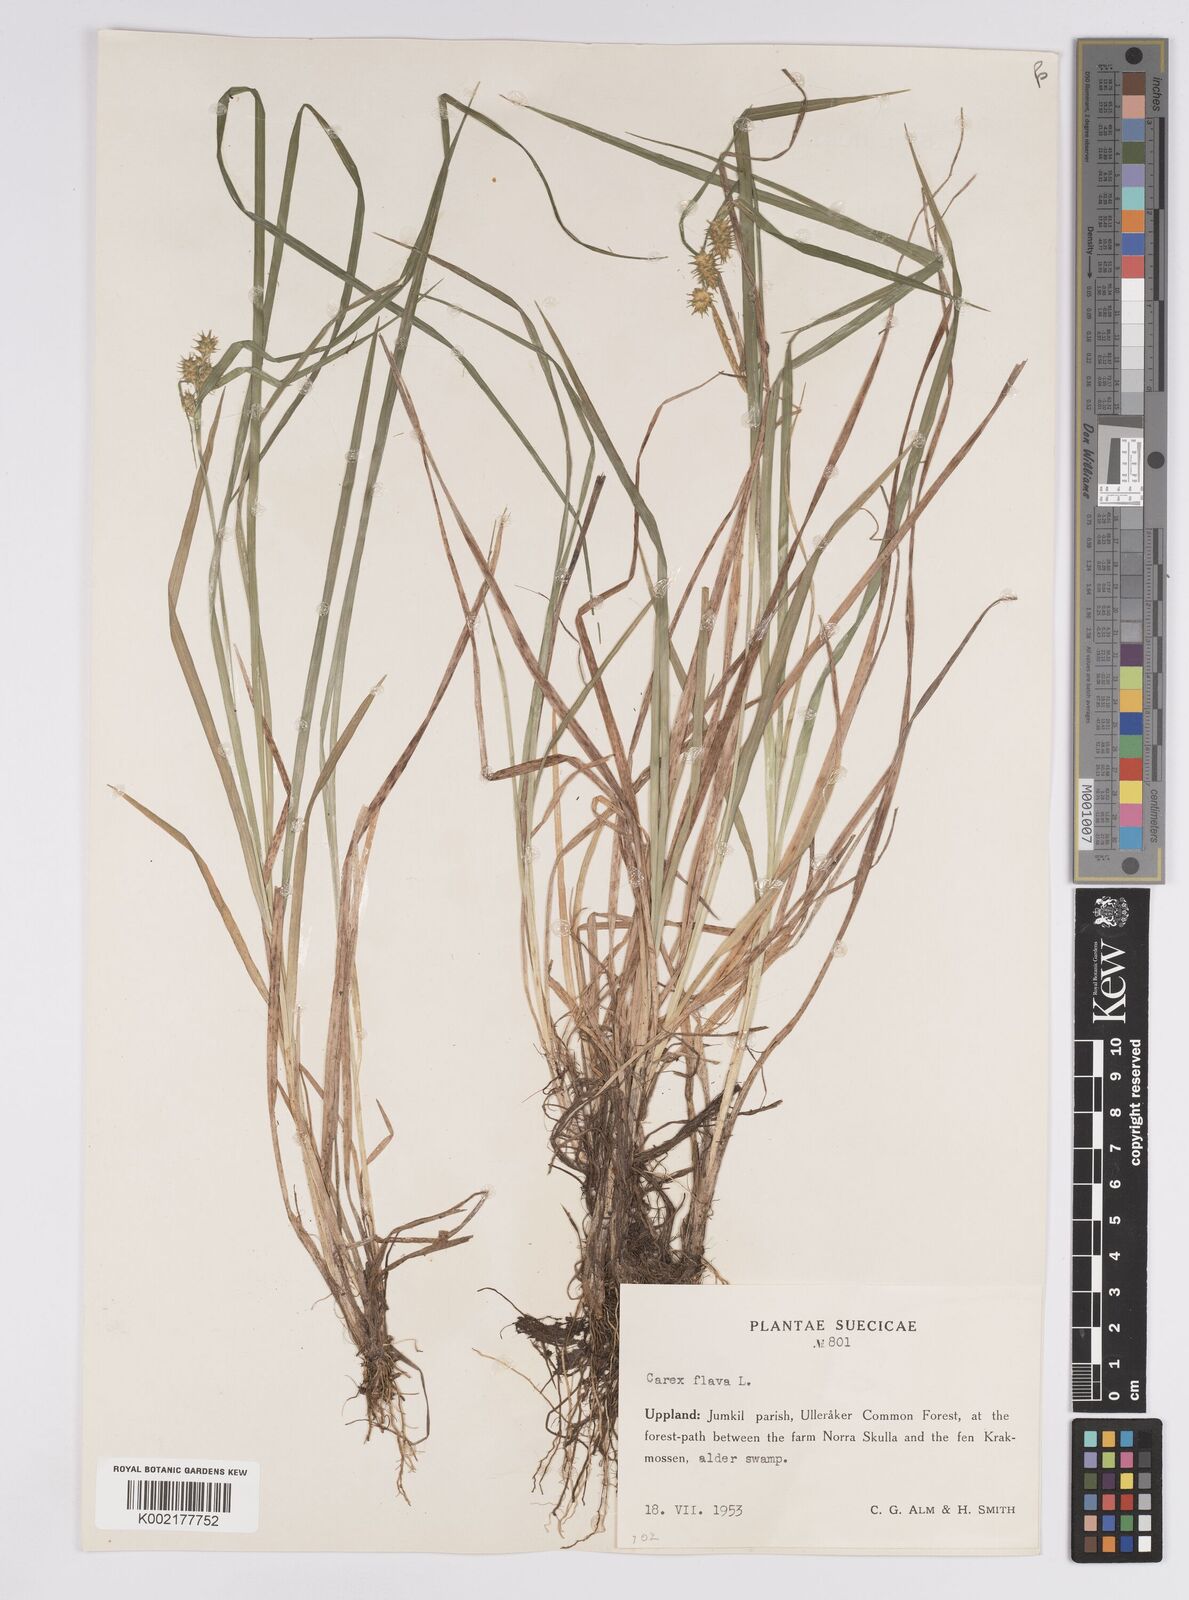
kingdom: Plantae
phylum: Tracheophyta
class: Liliopsida
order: Poales
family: Cyperaceae
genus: Carex
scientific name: Carex flava
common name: Large yellow-sedge
